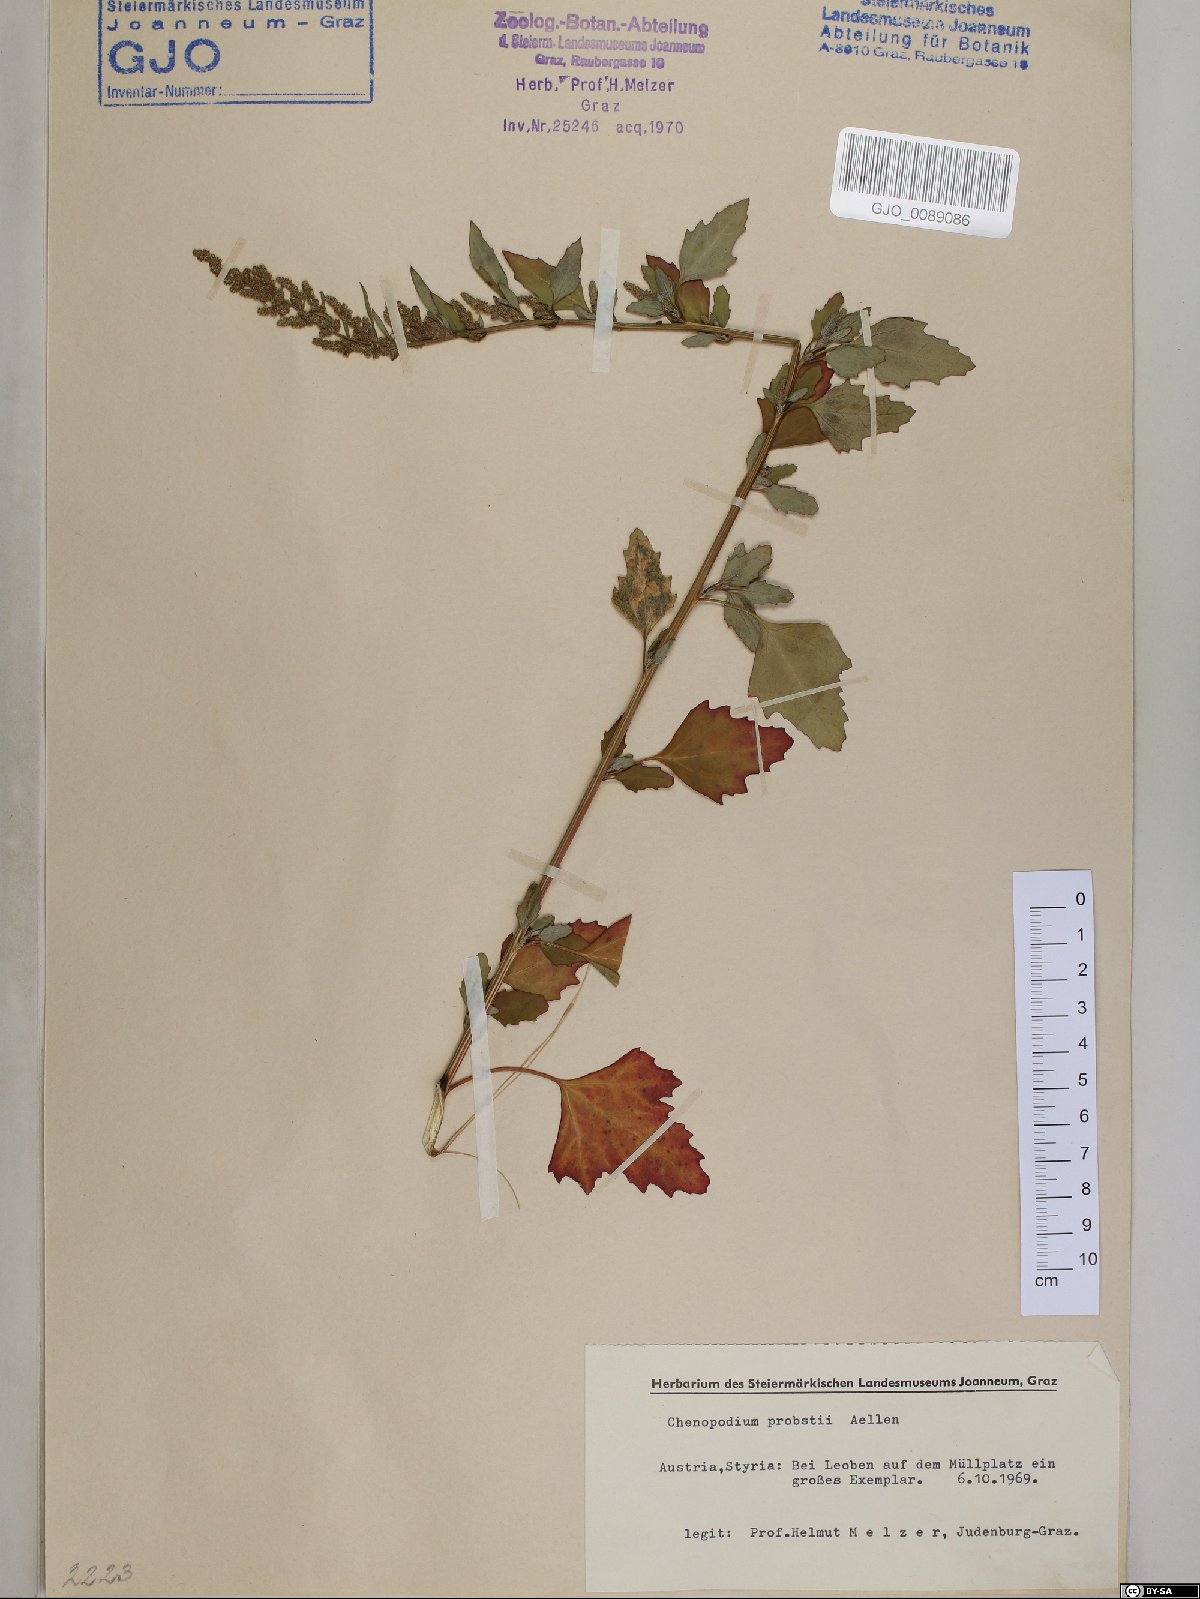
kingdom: Plantae
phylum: Tracheophyta
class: Magnoliopsida
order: Caryophyllales
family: Amaranthaceae
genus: Chenopodium
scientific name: Chenopodium probstii
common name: Probst's goosefoot
